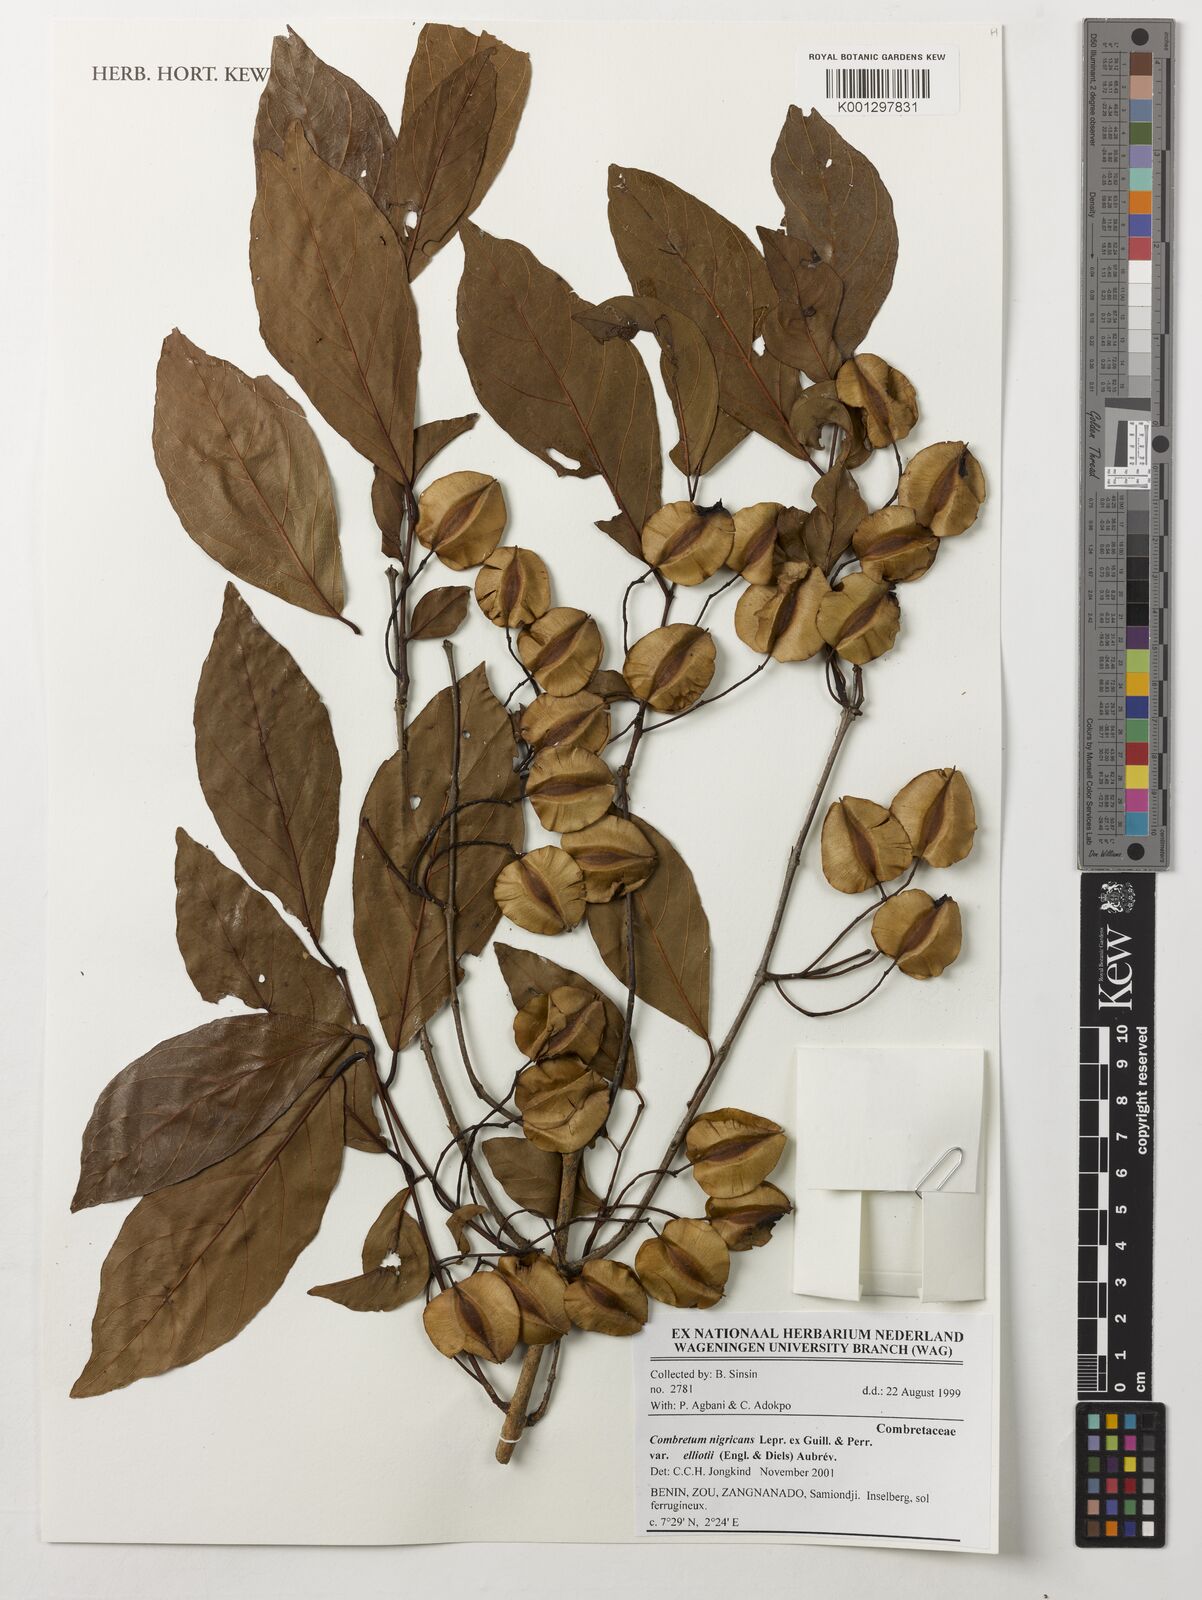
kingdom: Plantae
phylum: Tracheophyta
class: Magnoliopsida
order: Myrtales
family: Combretaceae
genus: Combretum
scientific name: Combretum nigricans
